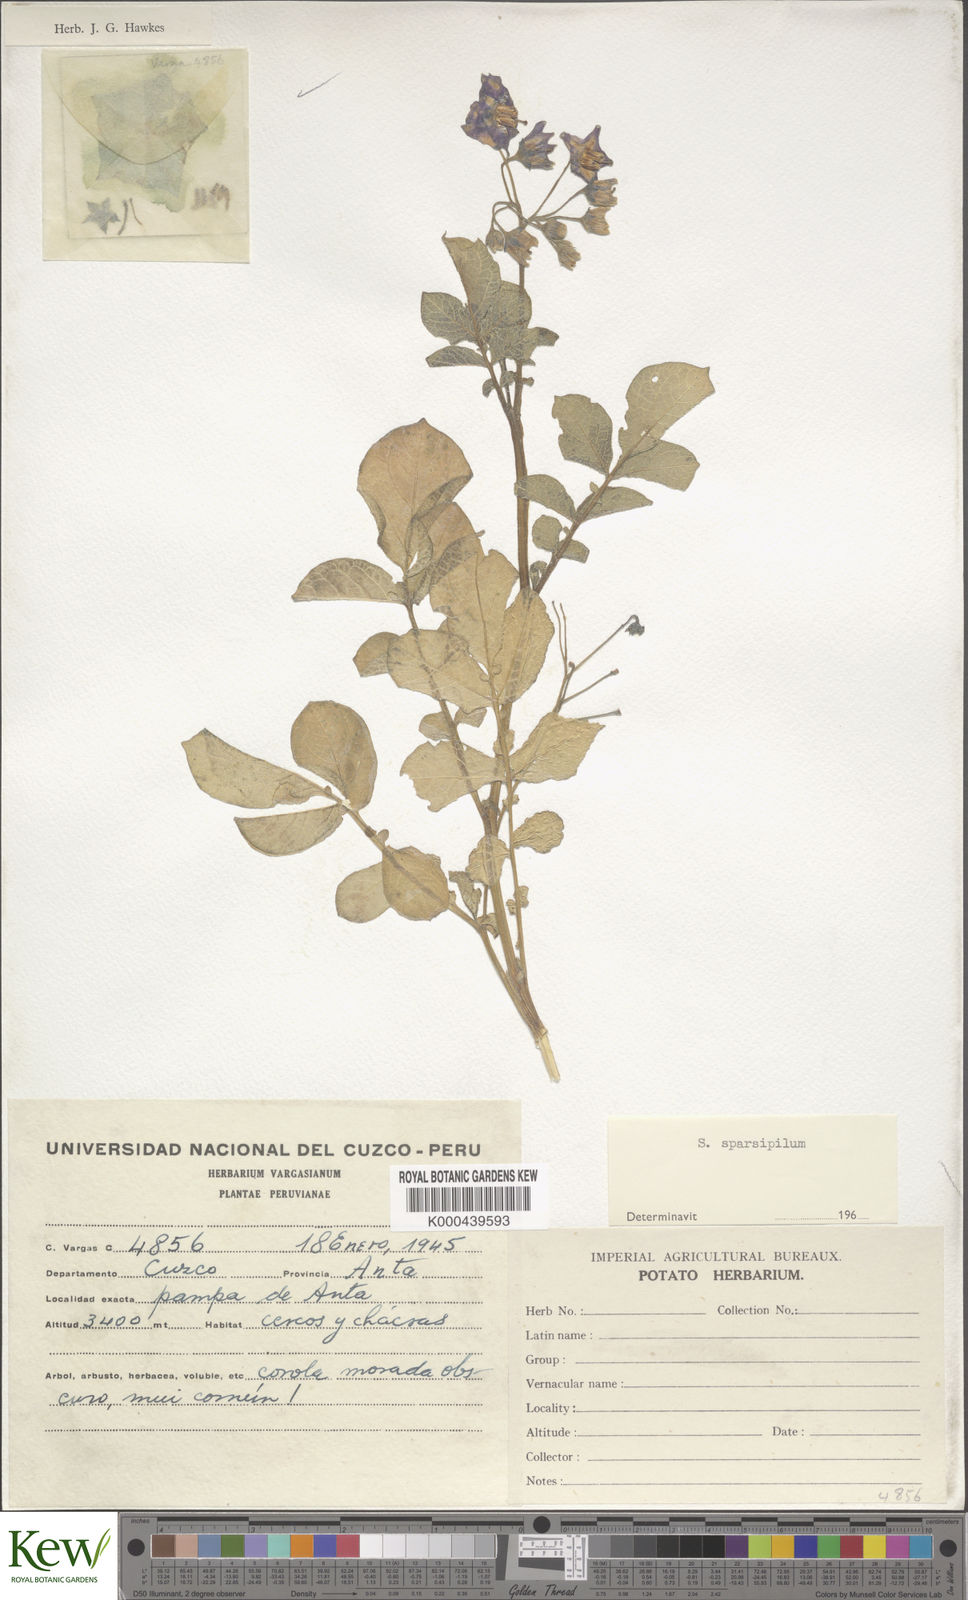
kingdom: Plantae
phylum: Tracheophyta
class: Magnoliopsida
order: Solanales
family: Solanaceae
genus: Solanum
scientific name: Solanum raphanifolium
